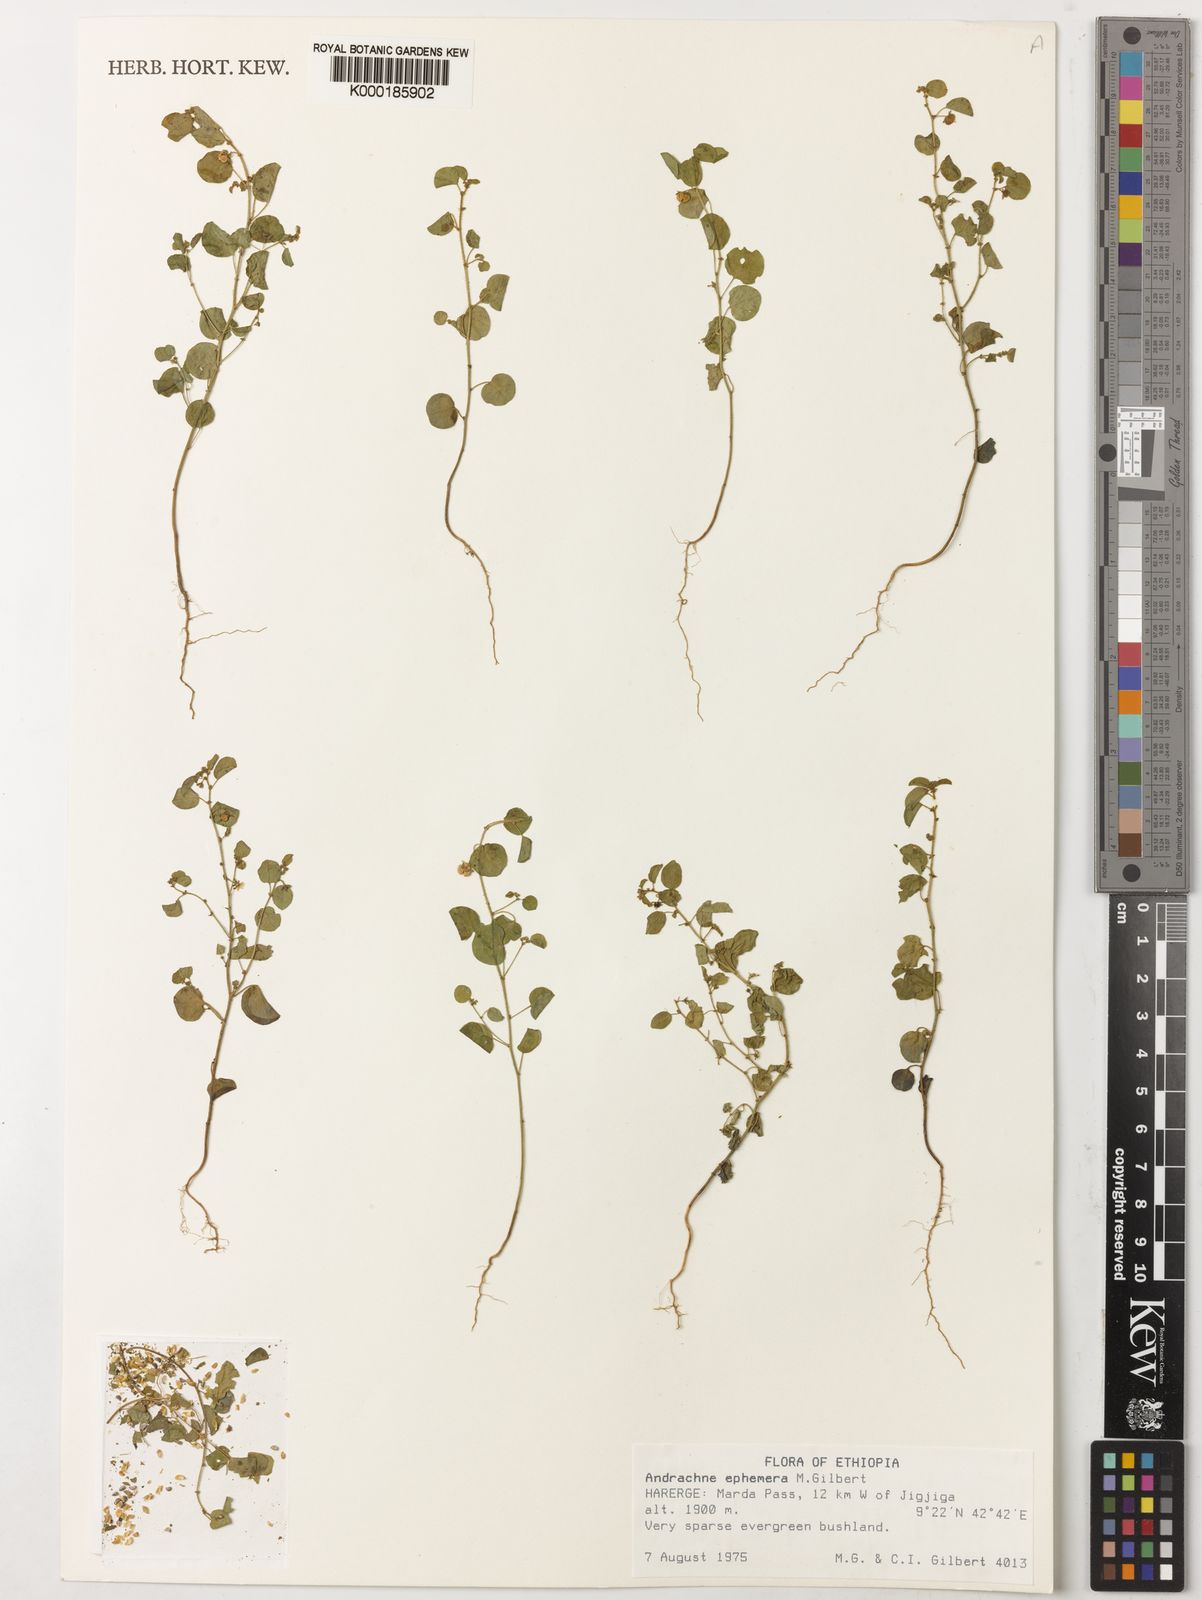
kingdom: Plantae
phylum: Tracheophyta
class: Magnoliopsida
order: Malpighiales
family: Phyllanthaceae
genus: Andrachne
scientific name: Andrachne ephemera
